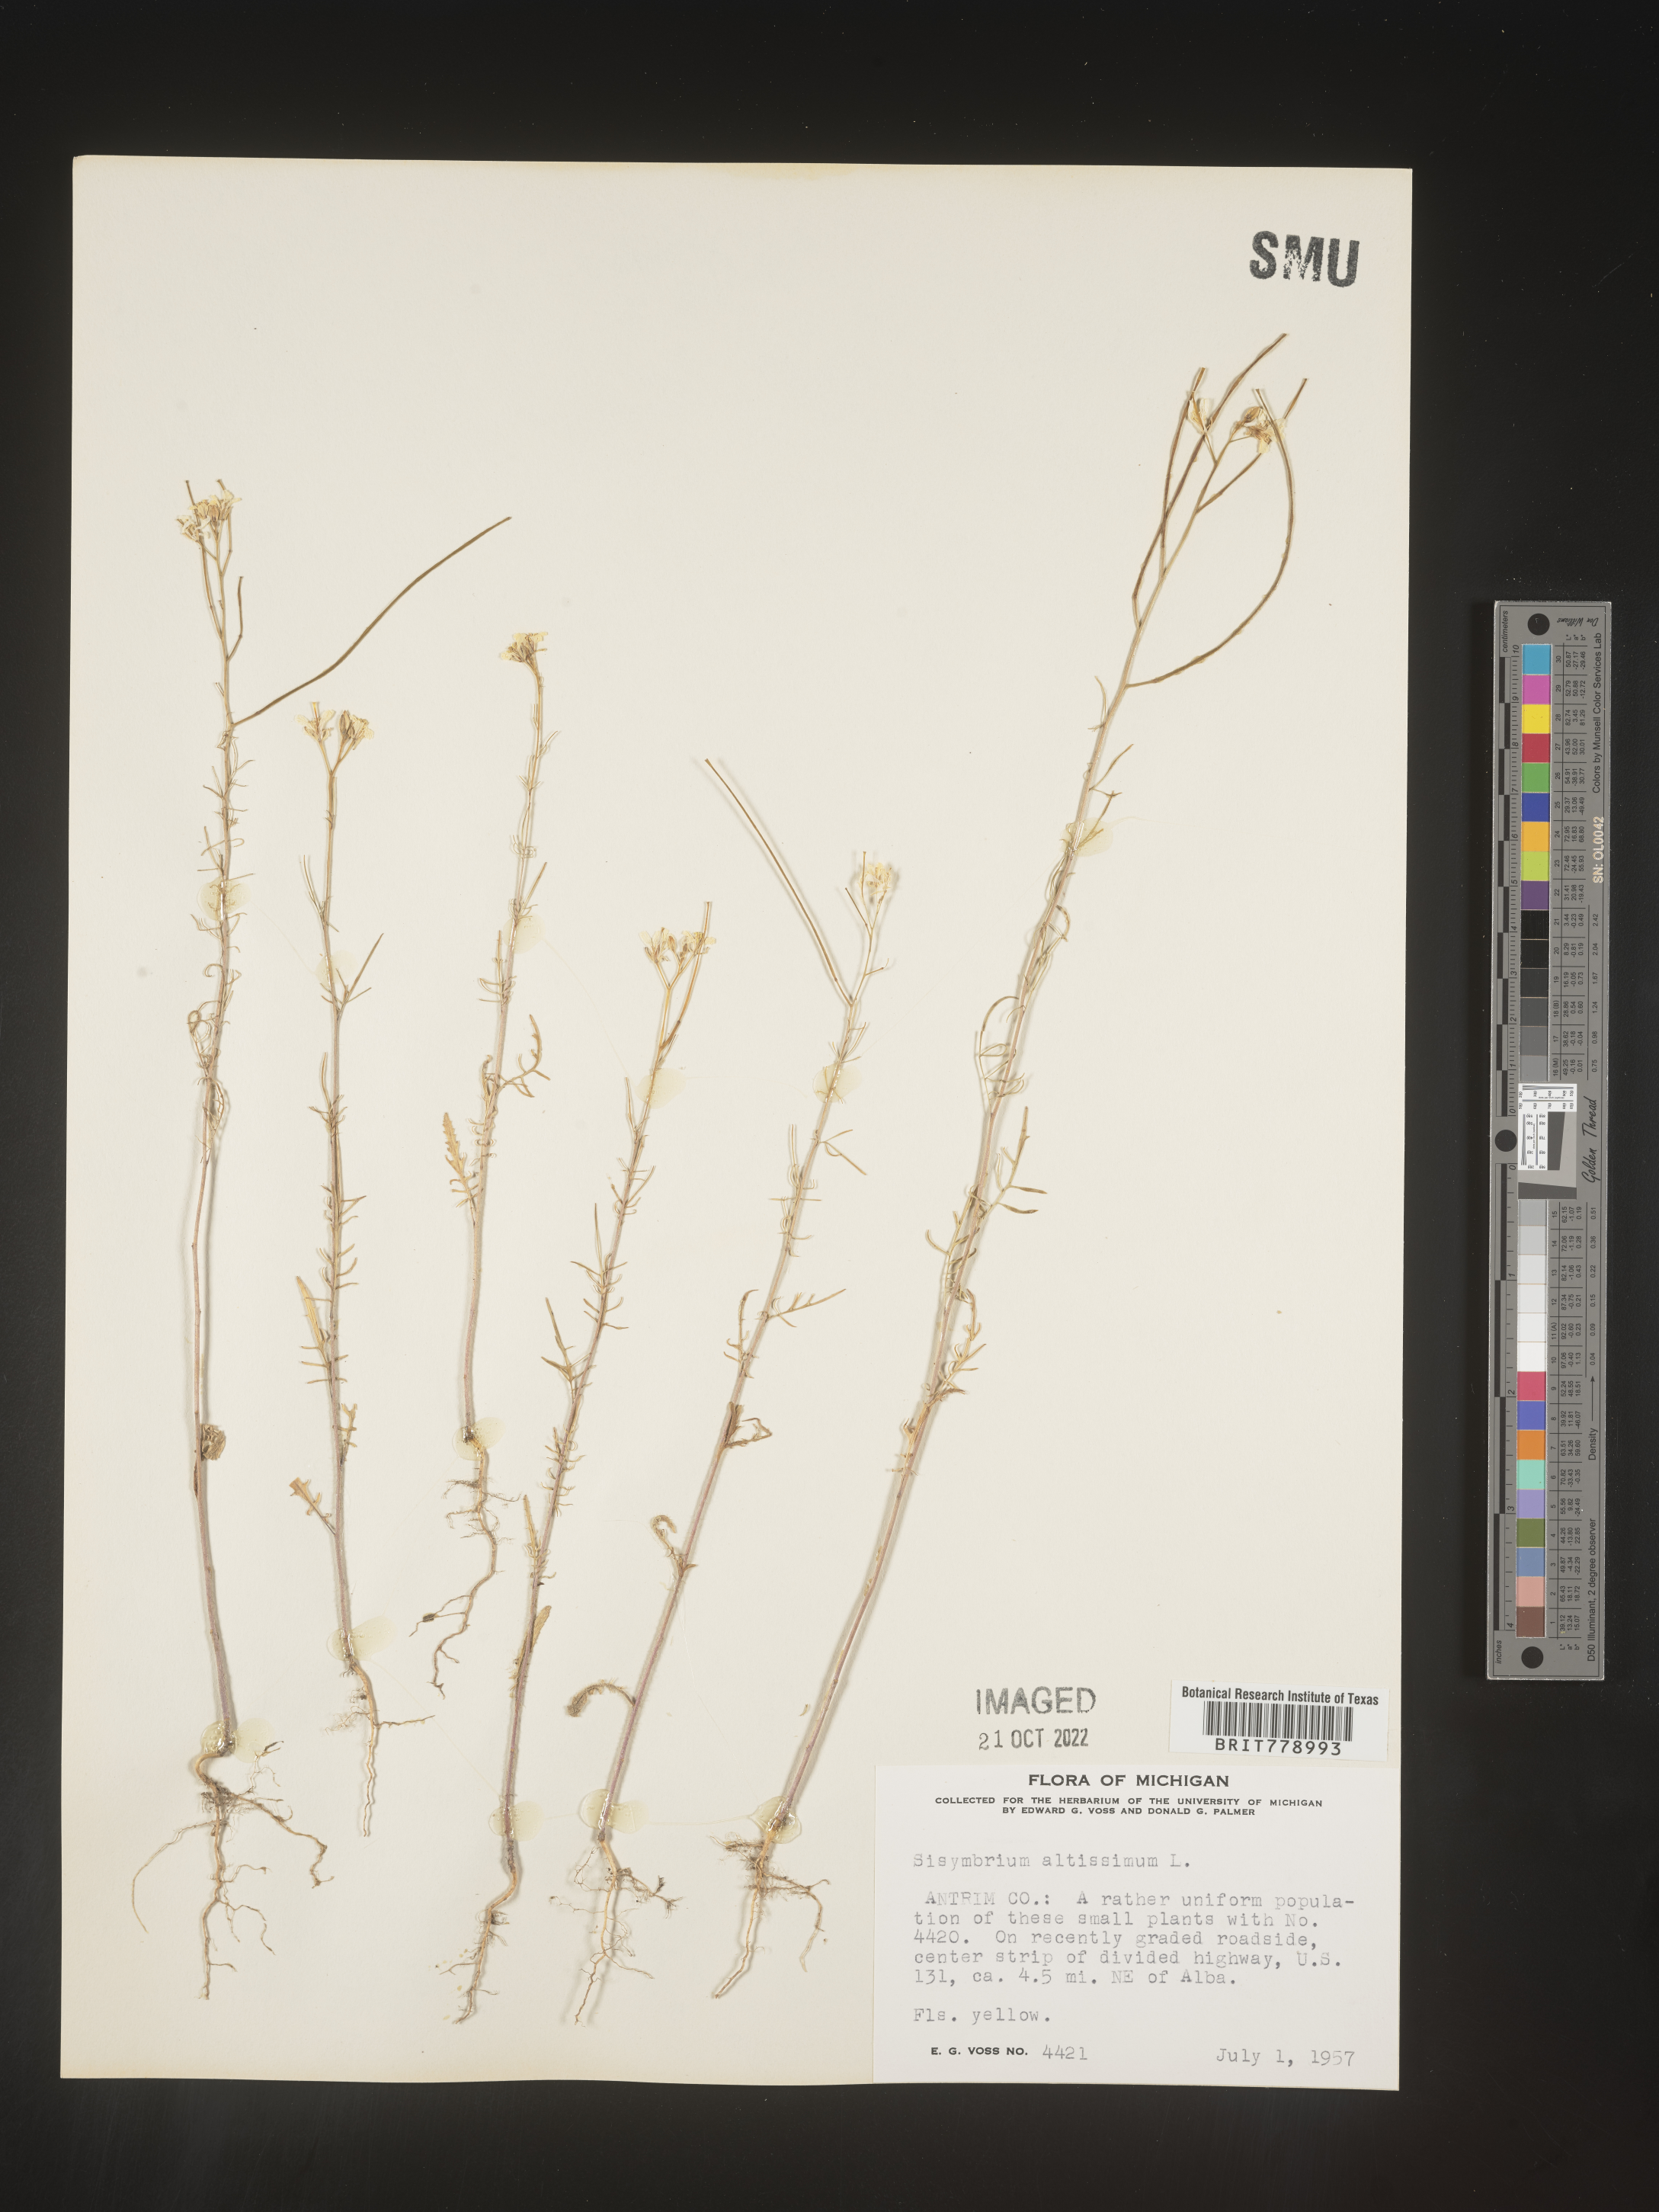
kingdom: Plantae
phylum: Tracheophyta
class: Magnoliopsida
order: Brassicales
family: Brassicaceae
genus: Sisymbrium
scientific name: Sisymbrium altissimum
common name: Tall rocket
